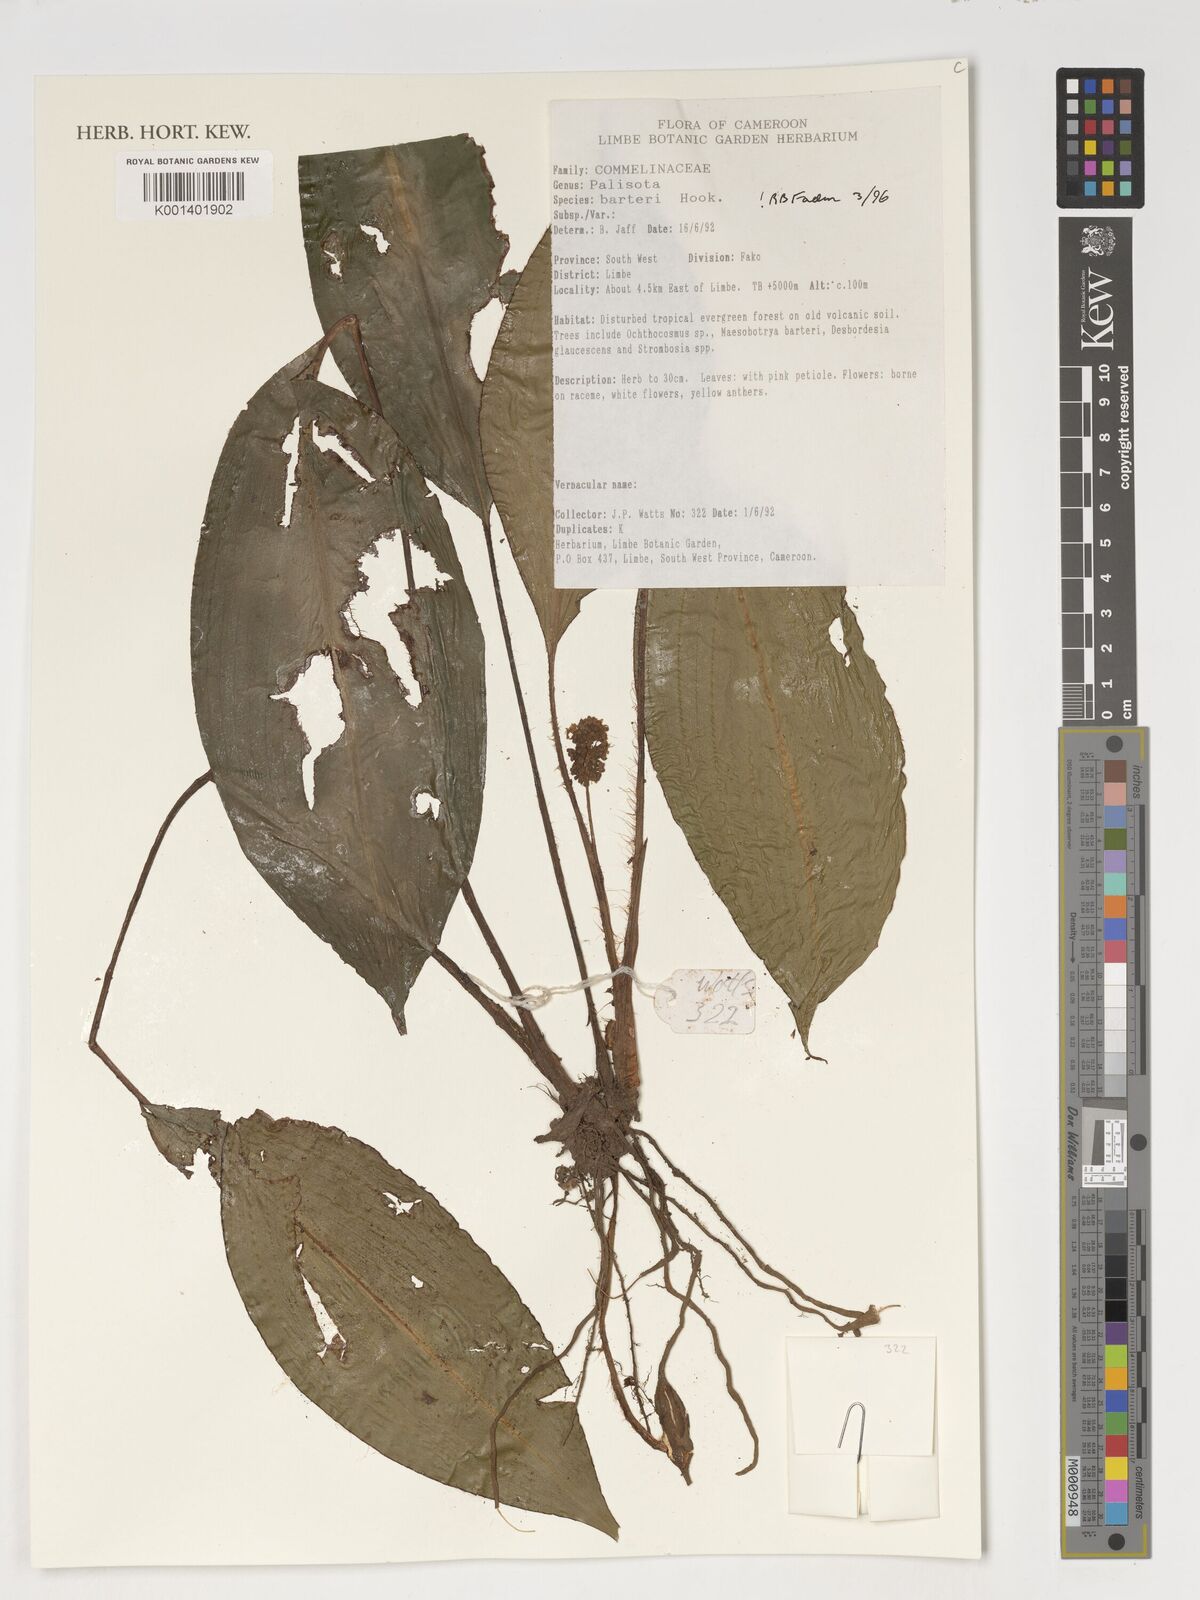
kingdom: Plantae
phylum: Tracheophyta
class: Liliopsida
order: Commelinales
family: Commelinaceae
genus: Palisota
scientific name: Palisota barteri
